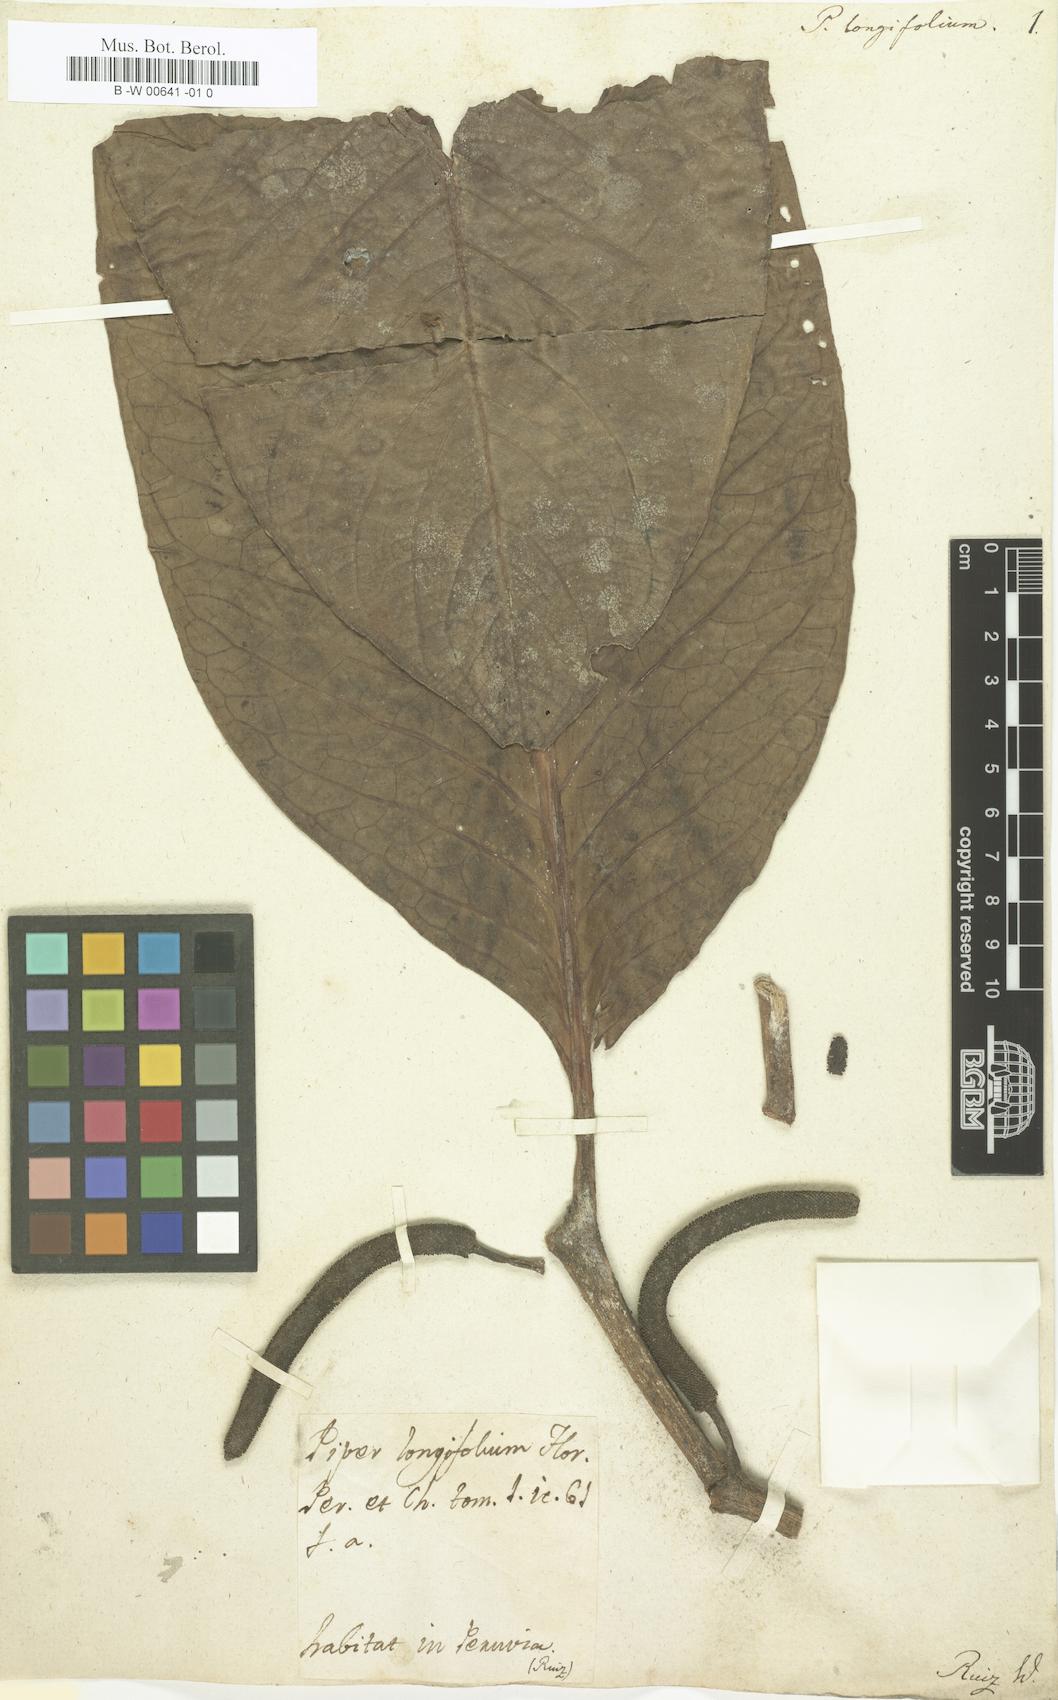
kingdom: Plantae
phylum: Tracheophyta
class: Magnoliopsida
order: Piperales
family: Piperaceae
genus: Piper
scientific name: Piper longifolium
